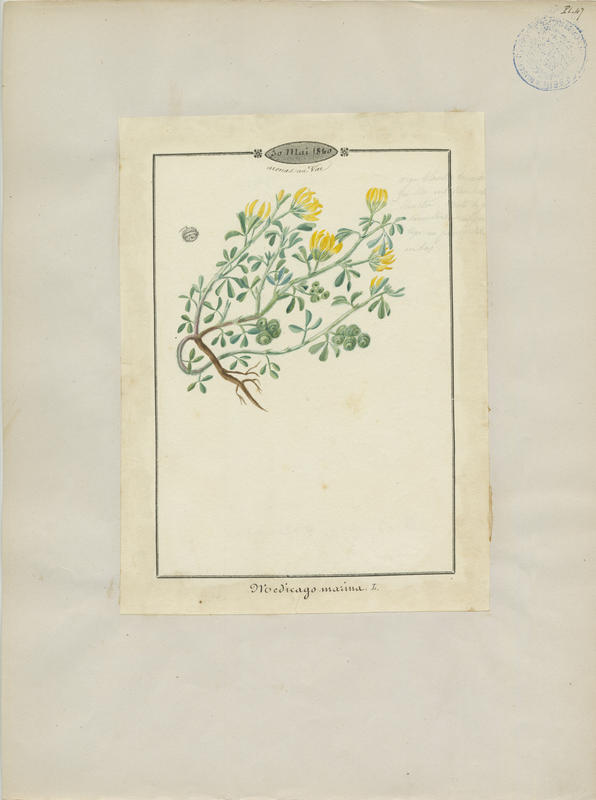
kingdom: Plantae
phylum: Tracheophyta
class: Magnoliopsida
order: Fabales
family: Fabaceae
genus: Medicago
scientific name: Medicago marina
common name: Sea medick
